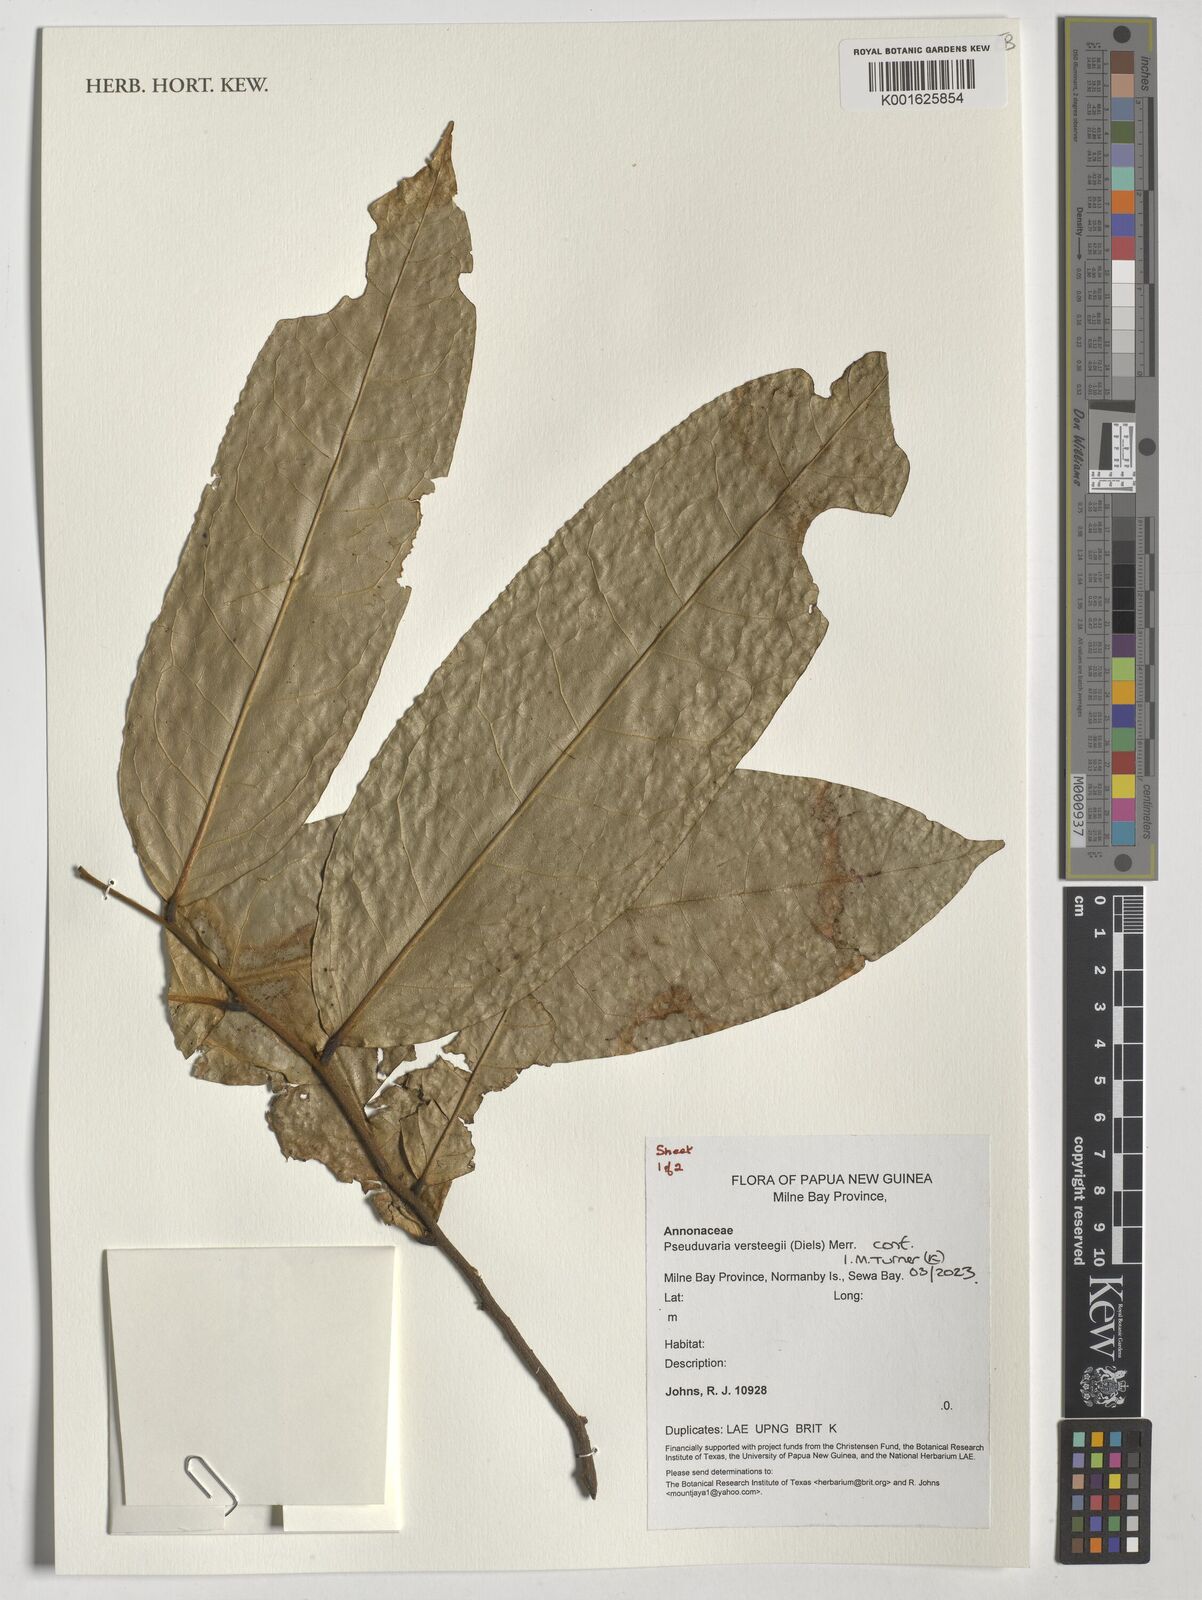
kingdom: Plantae
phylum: Tracheophyta
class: Magnoliopsida
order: Magnoliales
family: Annonaceae
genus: Pseuduvaria
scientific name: Pseuduvaria macrocarpa
